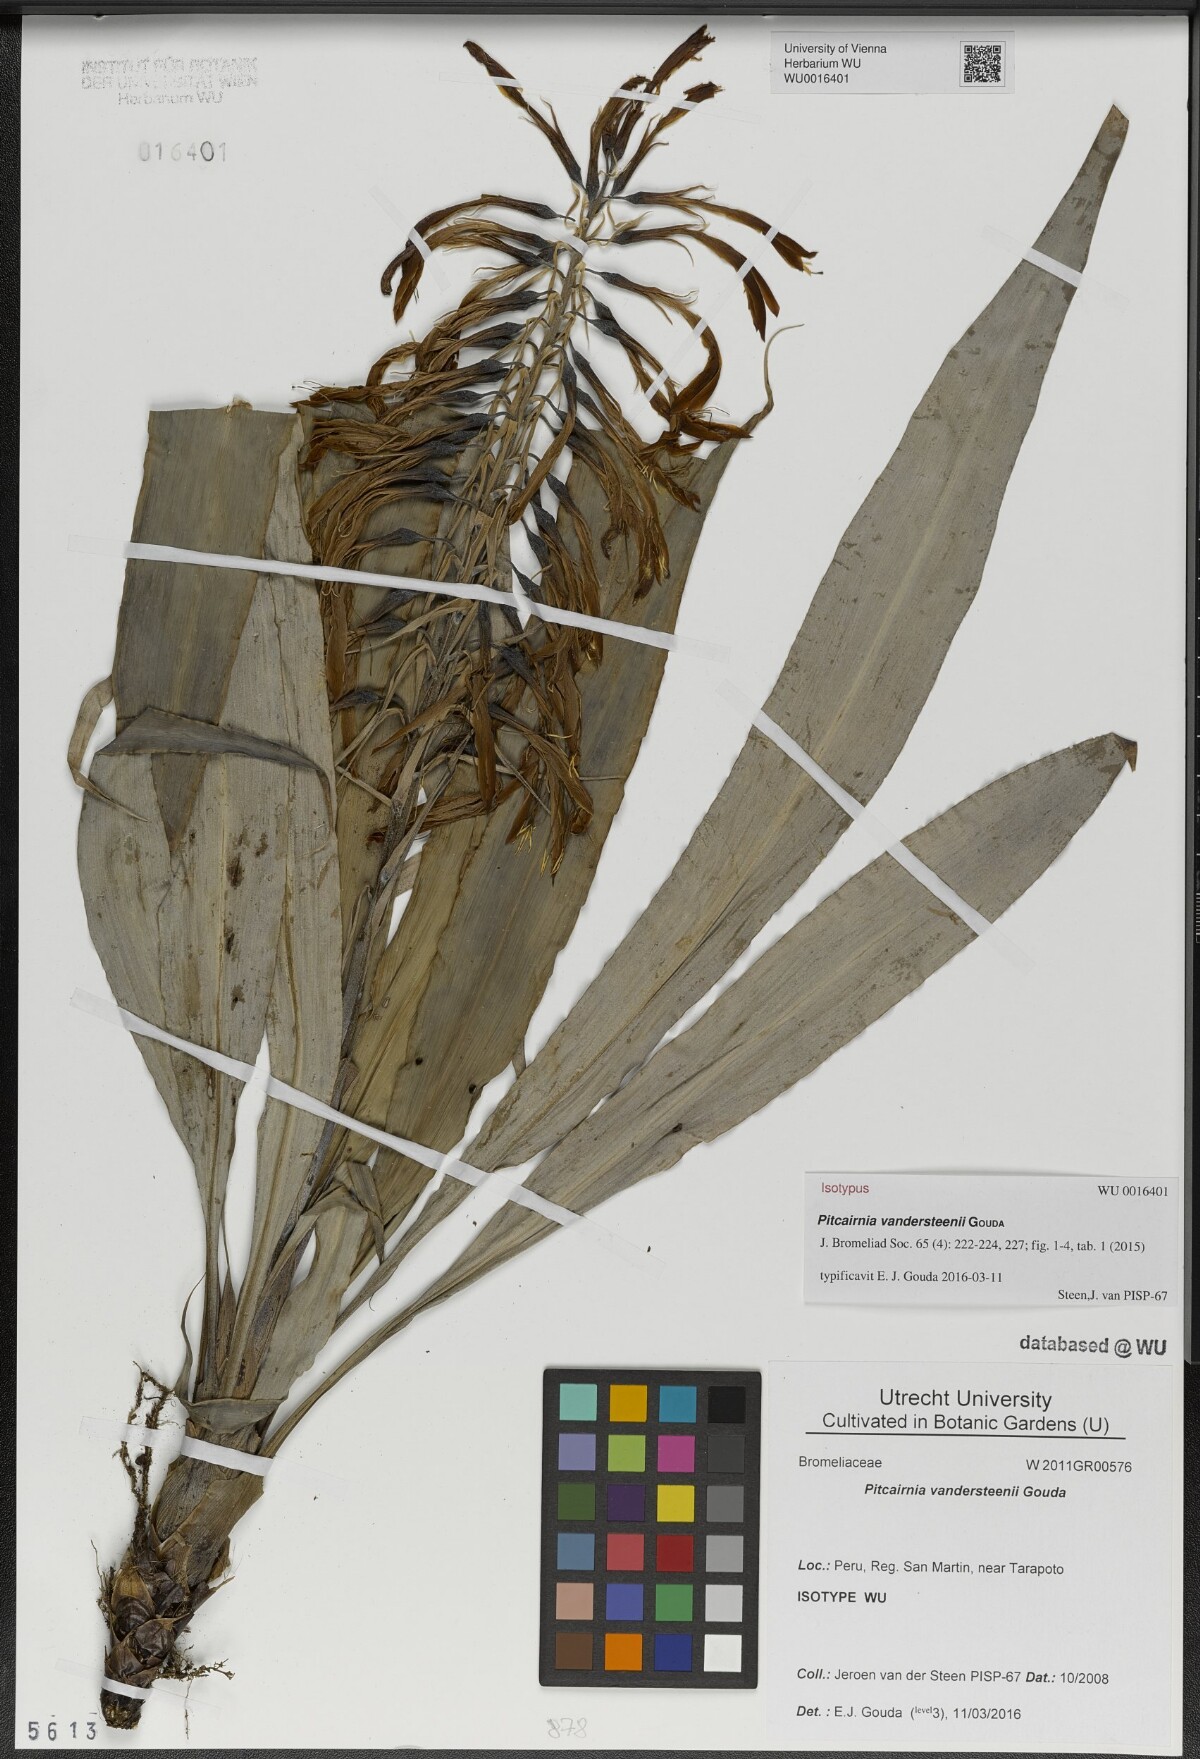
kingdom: Plantae
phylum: Tracheophyta
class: Liliopsida
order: Poales
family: Bromeliaceae
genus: Pitcairnia
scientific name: Pitcairnia vandersteenii
